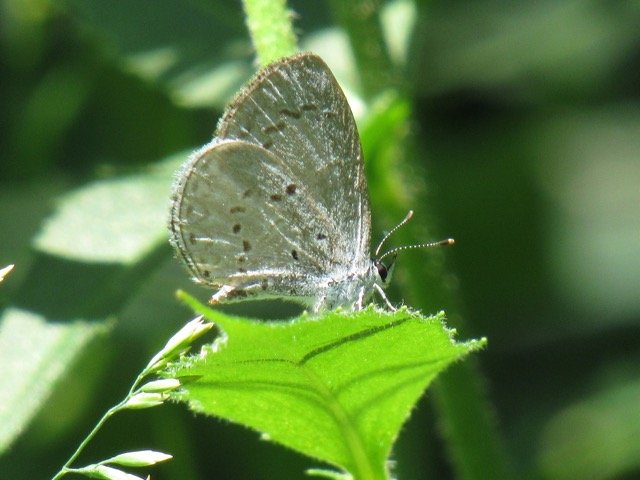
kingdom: Animalia
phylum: Arthropoda
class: Insecta
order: Lepidoptera
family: Lycaenidae
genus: Celastrina
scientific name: Celastrina
